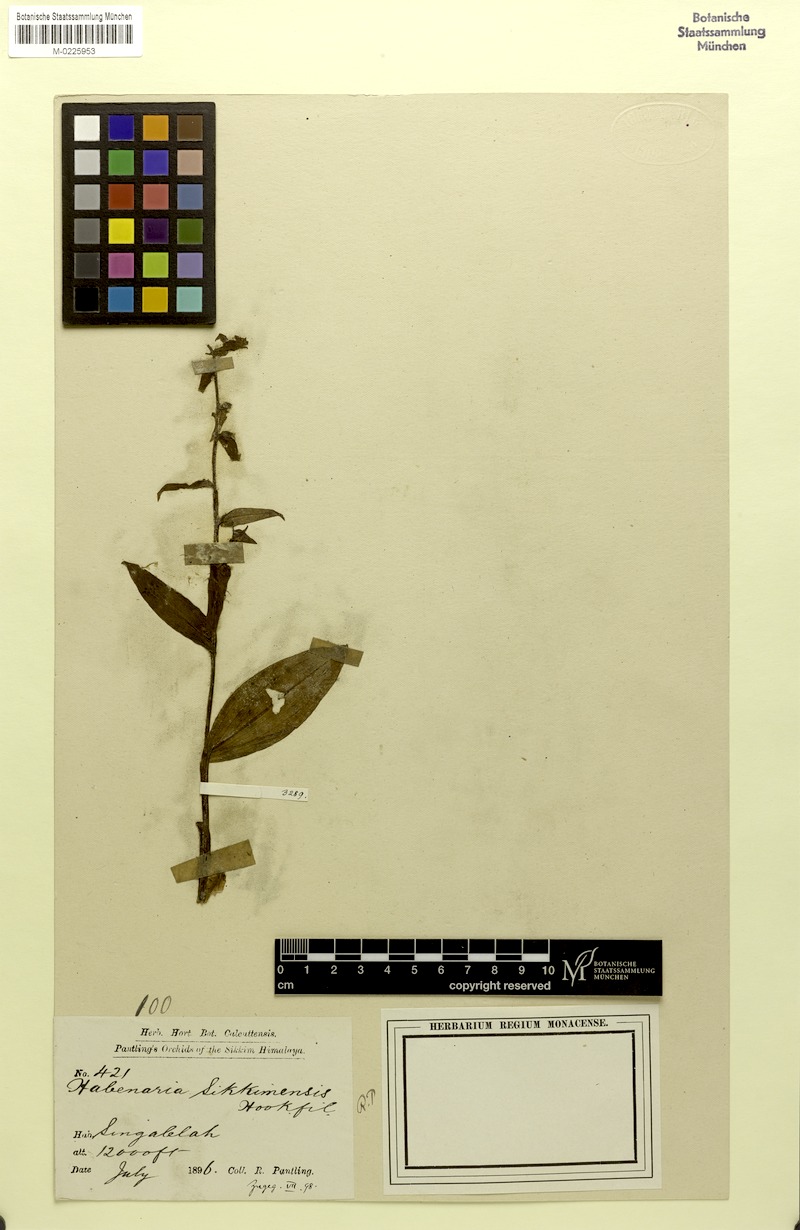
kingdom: Plantae
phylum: Tracheophyta
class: Liliopsida
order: Asparagales
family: Orchidaceae
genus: Platanthera
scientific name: Platanthera sikkimensis
